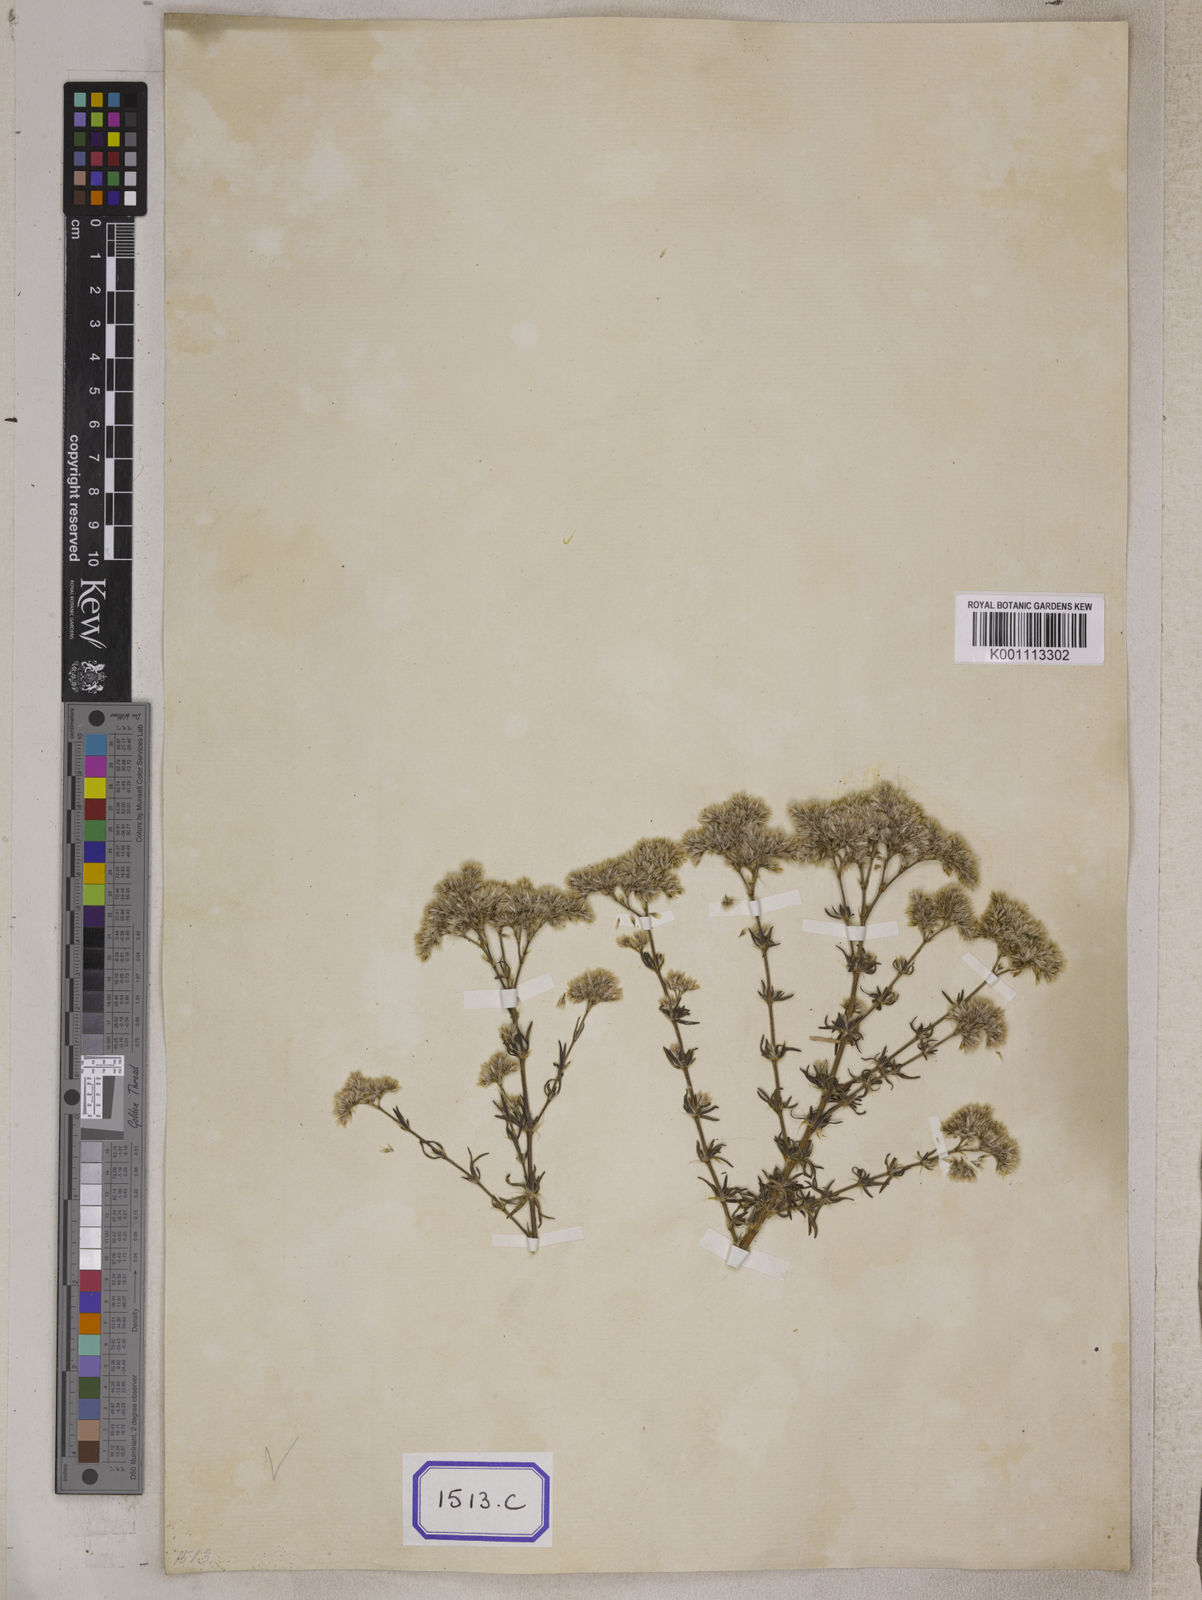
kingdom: Plantae
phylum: Tracheophyta
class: Magnoliopsida
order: Caryophyllales
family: Caryophyllaceae
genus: Polycarpaea
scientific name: Polycarpaea corymbosa
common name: Oldman's cap
